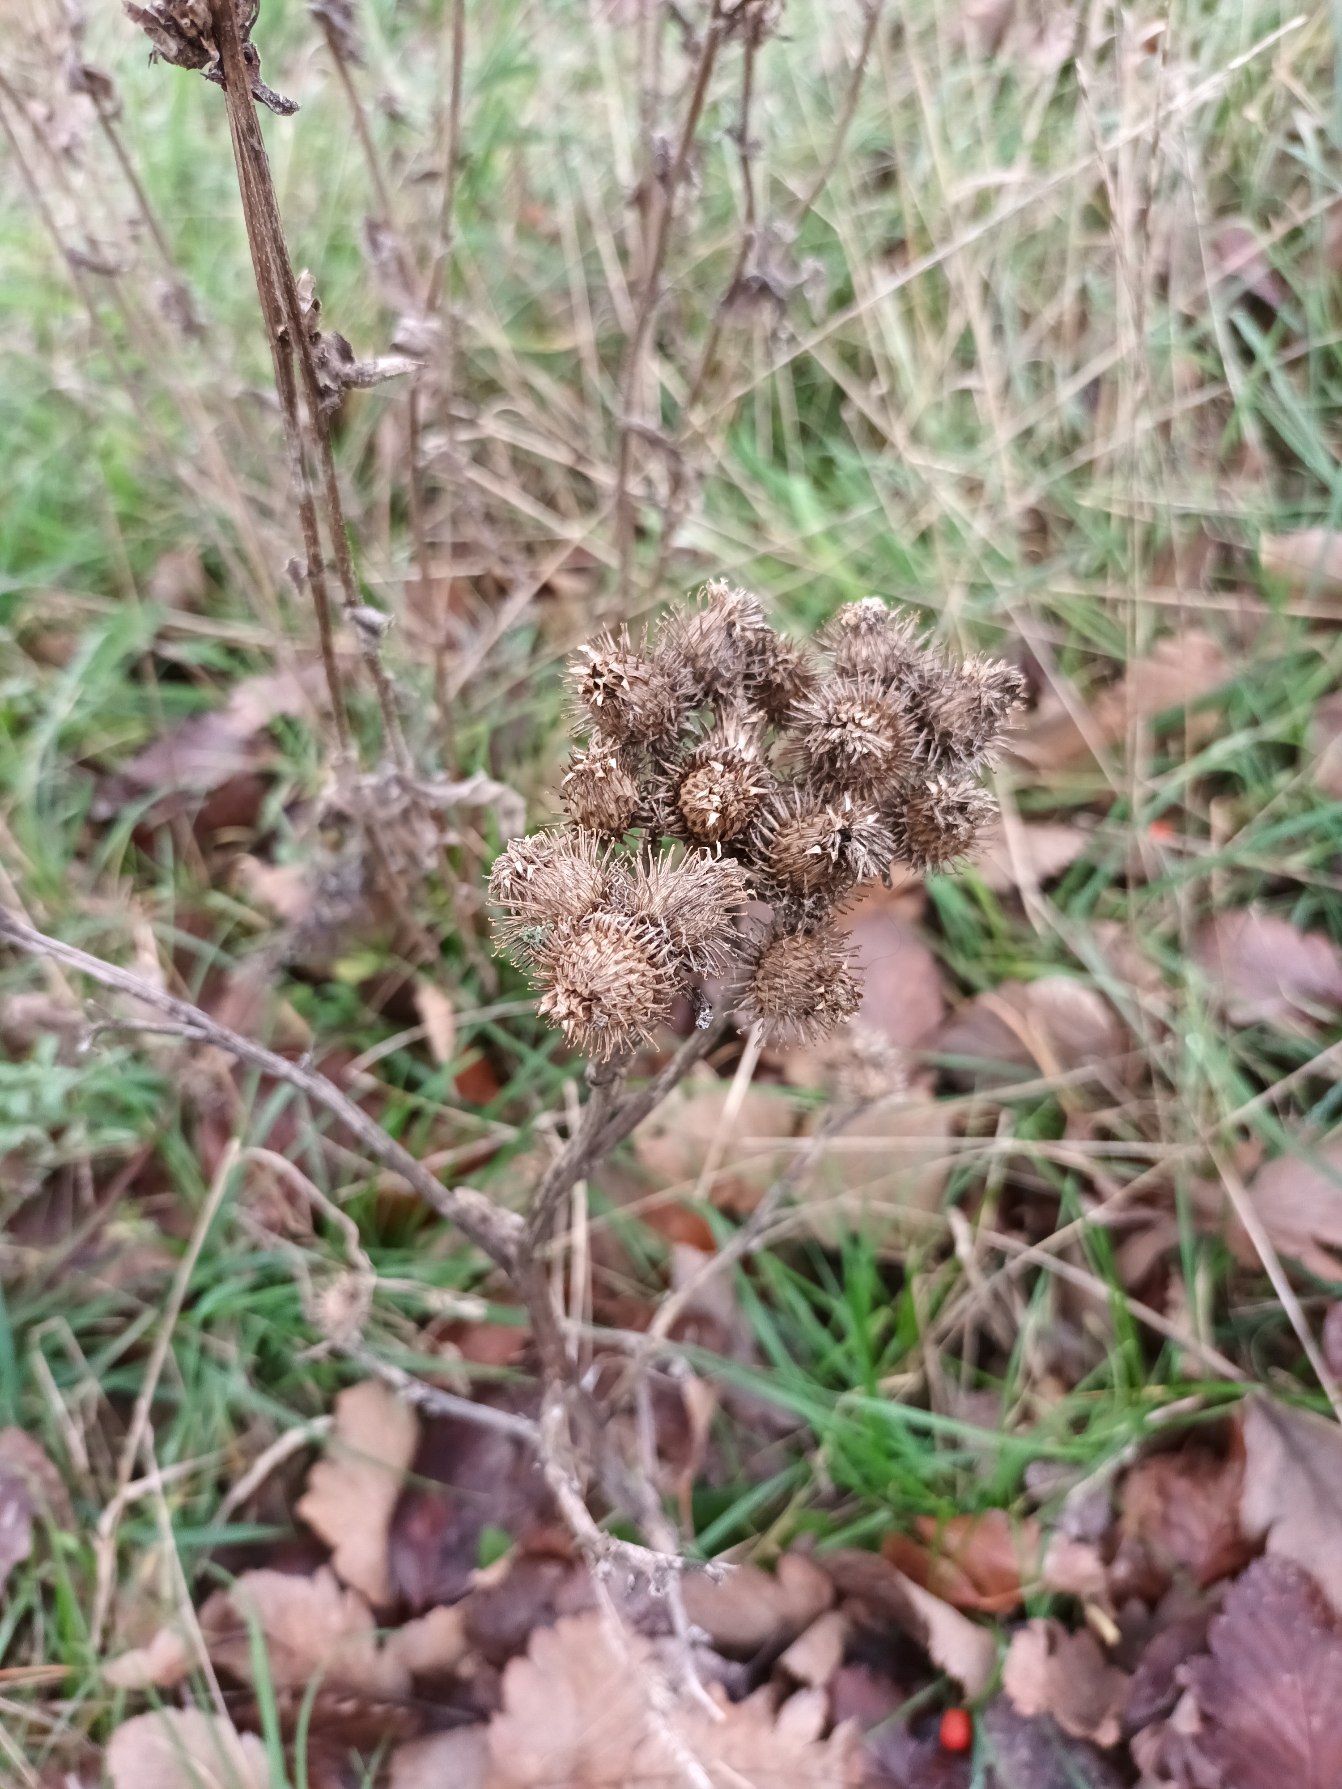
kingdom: Plantae
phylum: Tracheophyta
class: Magnoliopsida
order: Asterales
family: Asteraceae
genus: Arctium
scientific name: Arctium tomentosum
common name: Filtet burre
